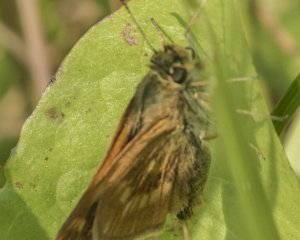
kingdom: Animalia
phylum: Arthropoda
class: Insecta
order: Lepidoptera
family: Hesperiidae
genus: Polites
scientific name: Polites
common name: Long Dash Skipper
